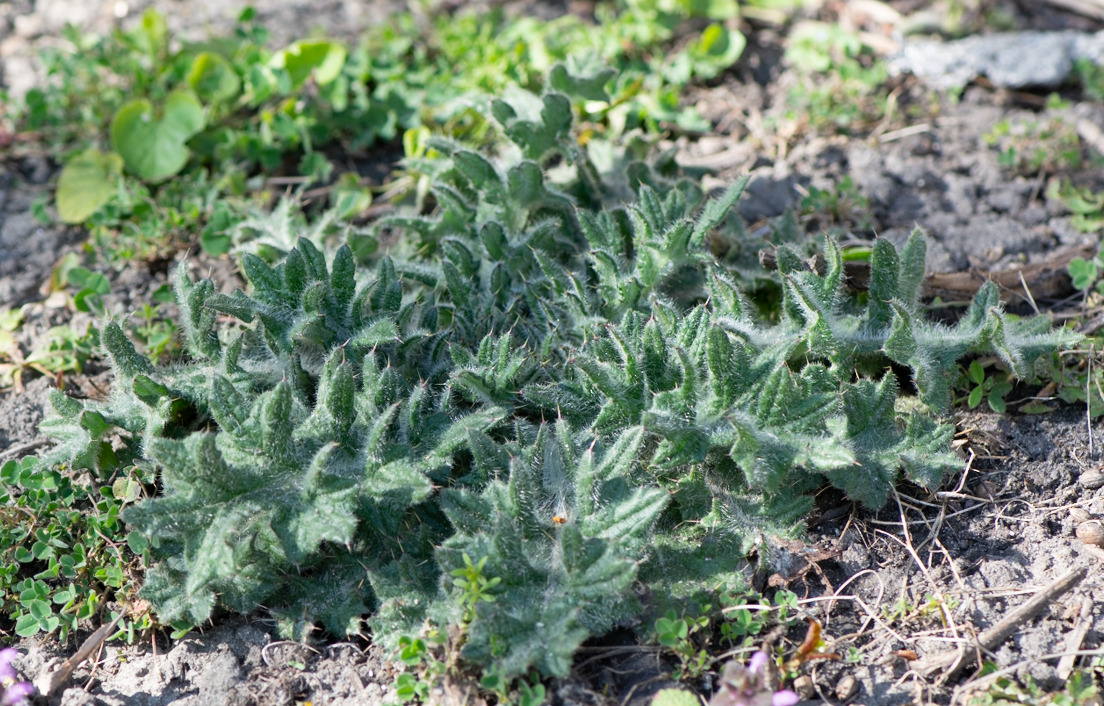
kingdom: Plantae
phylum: Tracheophyta
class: Magnoliopsida
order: Asterales
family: Asteraceae
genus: Cirsium
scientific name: Cirsium vulgare
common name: Horse-tidsel
